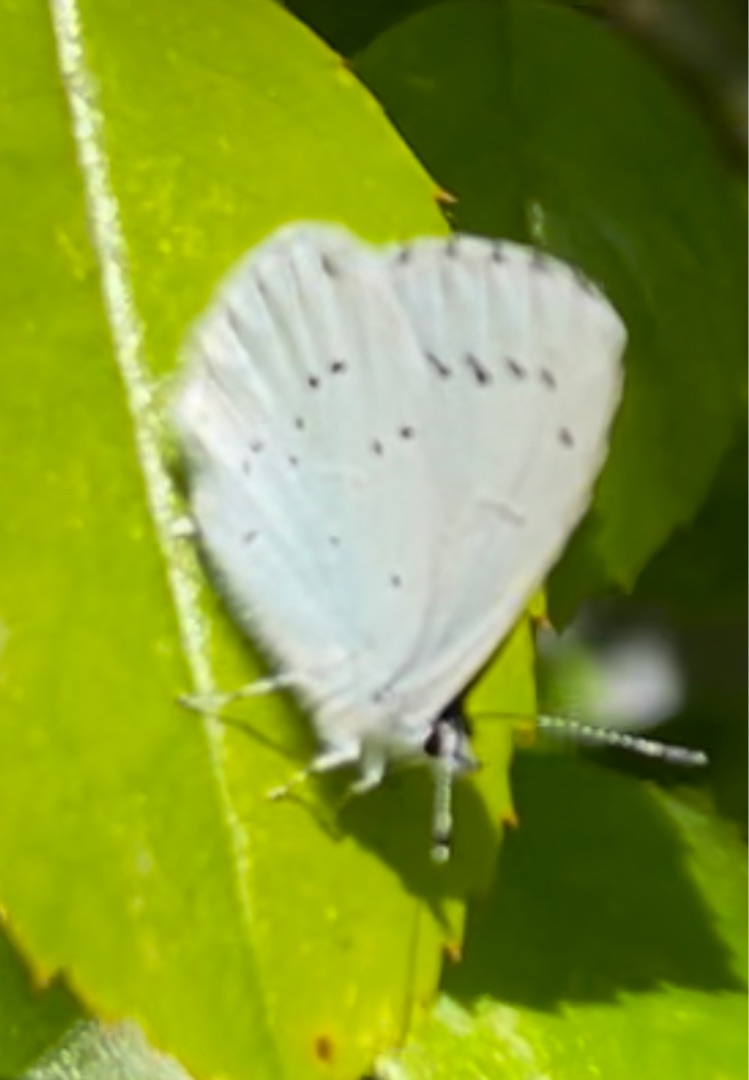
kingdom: Animalia
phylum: Arthropoda
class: Insecta
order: Lepidoptera
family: Lycaenidae
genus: Celastrina
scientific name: Celastrina argiolus
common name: Skovblåfugl
